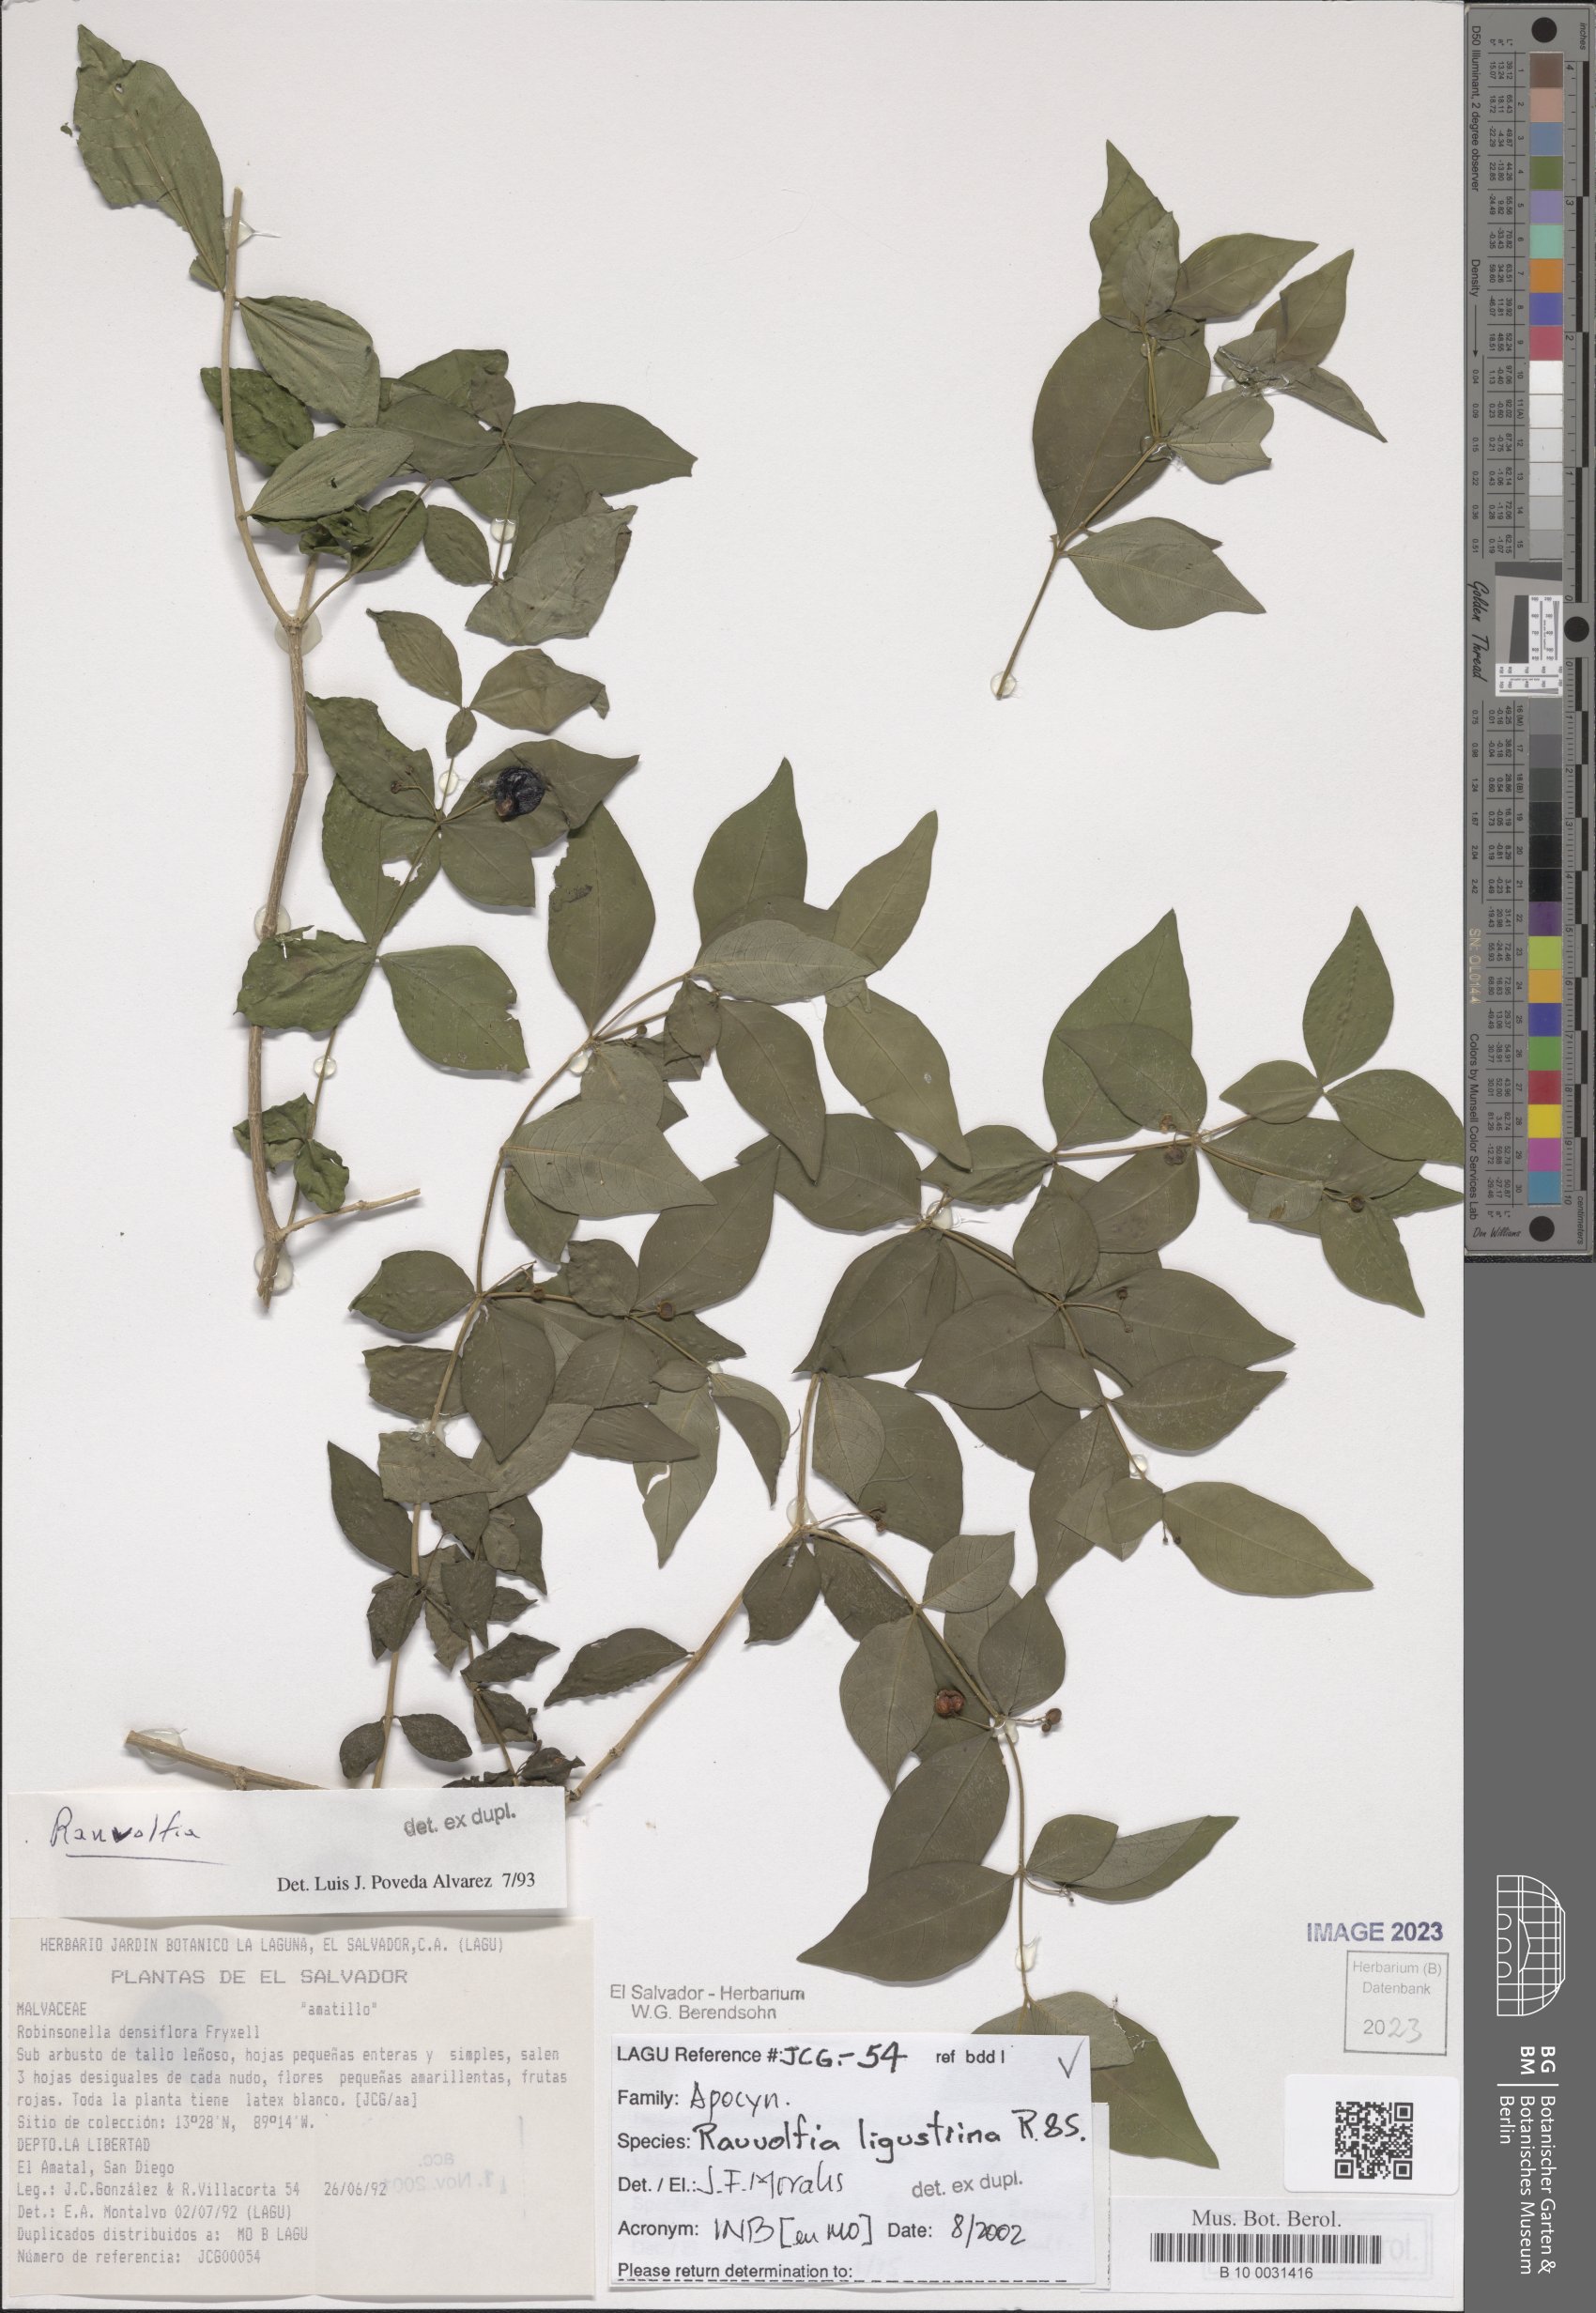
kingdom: Plantae
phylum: Tracheophyta
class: Magnoliopsida
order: Gentianales
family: Apocynaceae
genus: Rauvolfia
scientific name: Rauvolfia ligustrina
